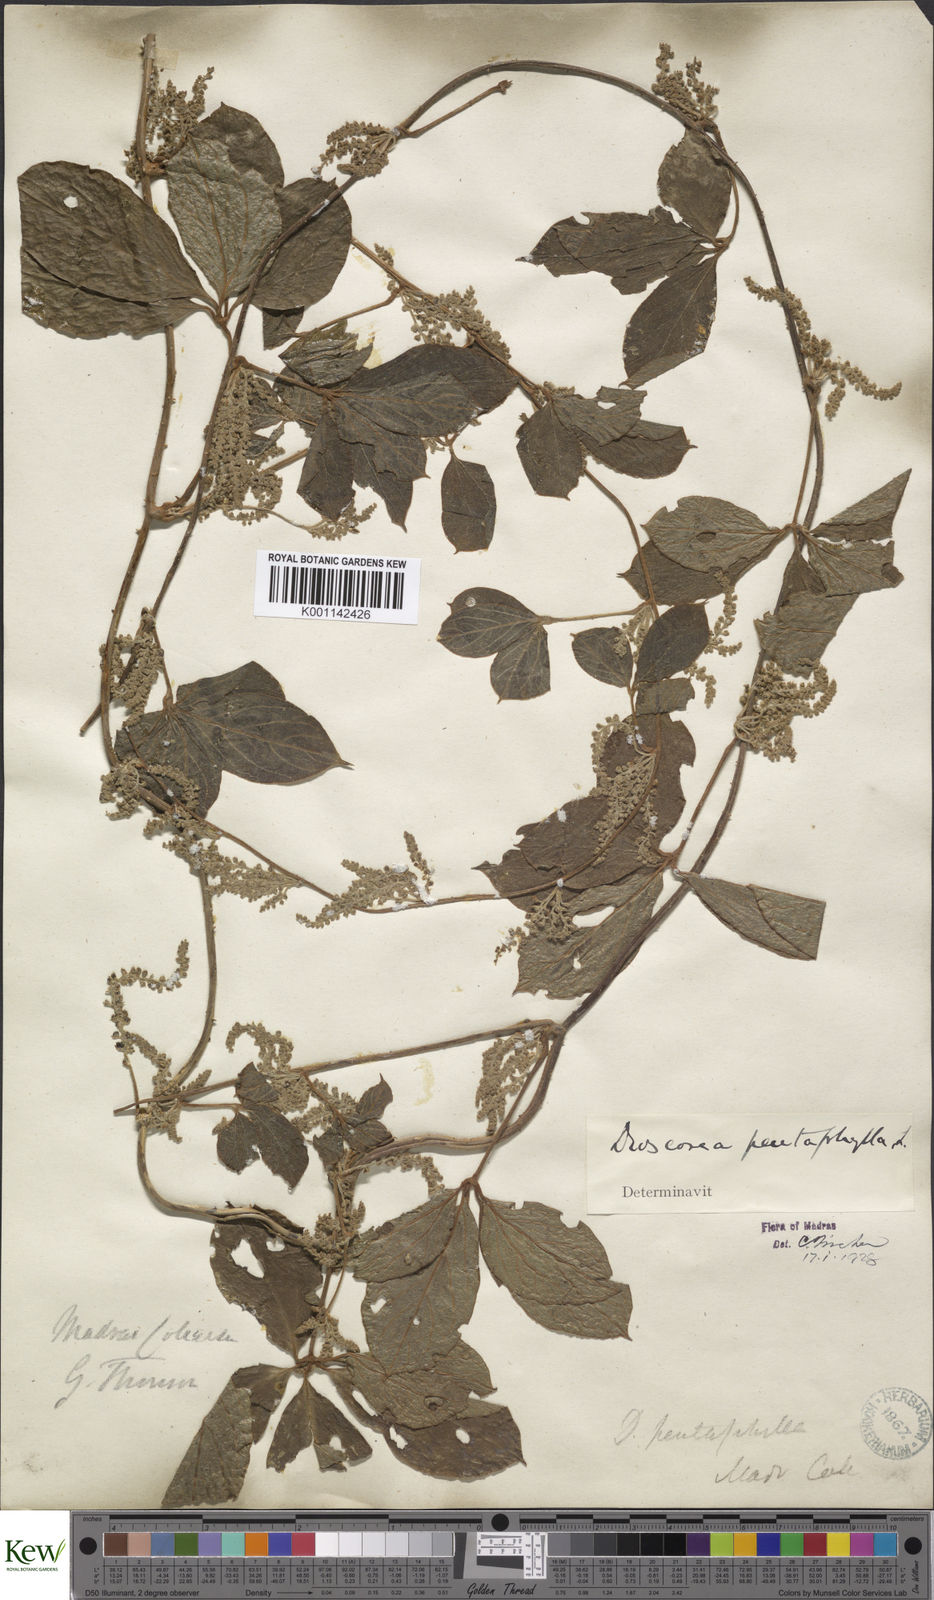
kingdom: Plantae
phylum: Tracheophyta
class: Liliopsida
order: Dioscoreales
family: Dioscoreaceae
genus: Dioscorea
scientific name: Dioscorea pentaphylla
